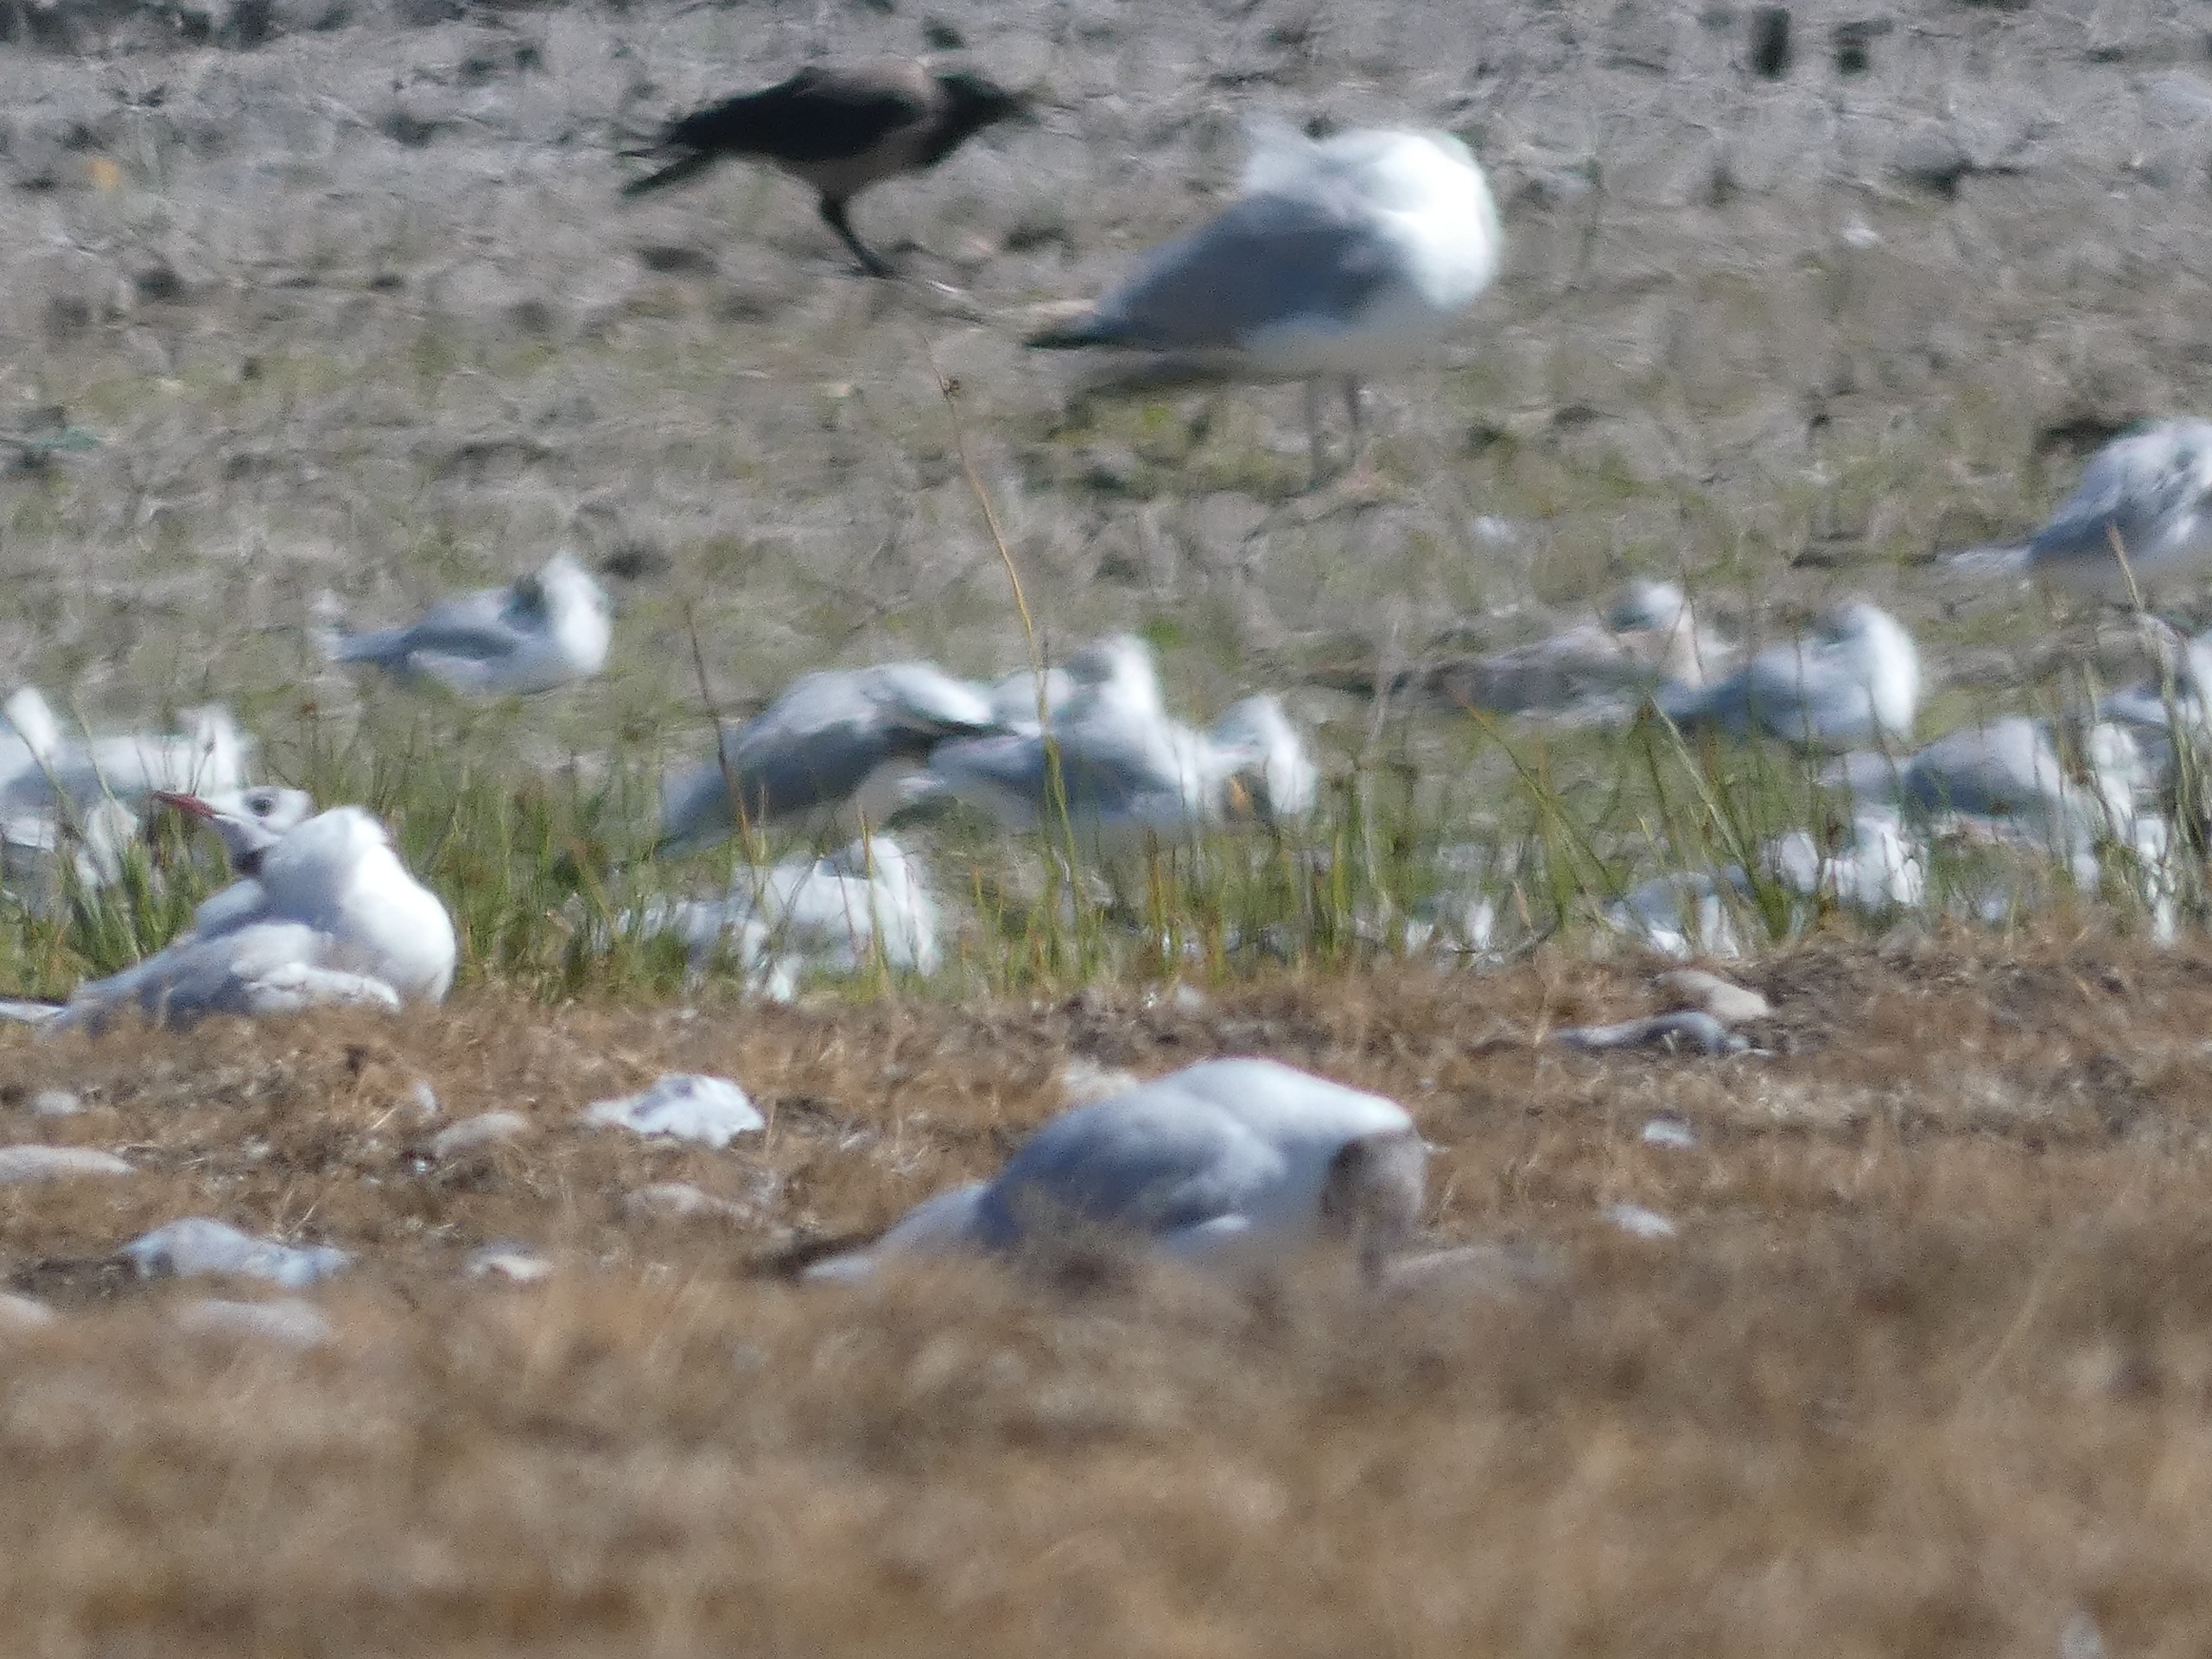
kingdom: Animalia
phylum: Chordata
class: Aves
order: Passeriformes
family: Corvidae
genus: Corvus
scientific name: Corvus cornix
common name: Gråkrage
